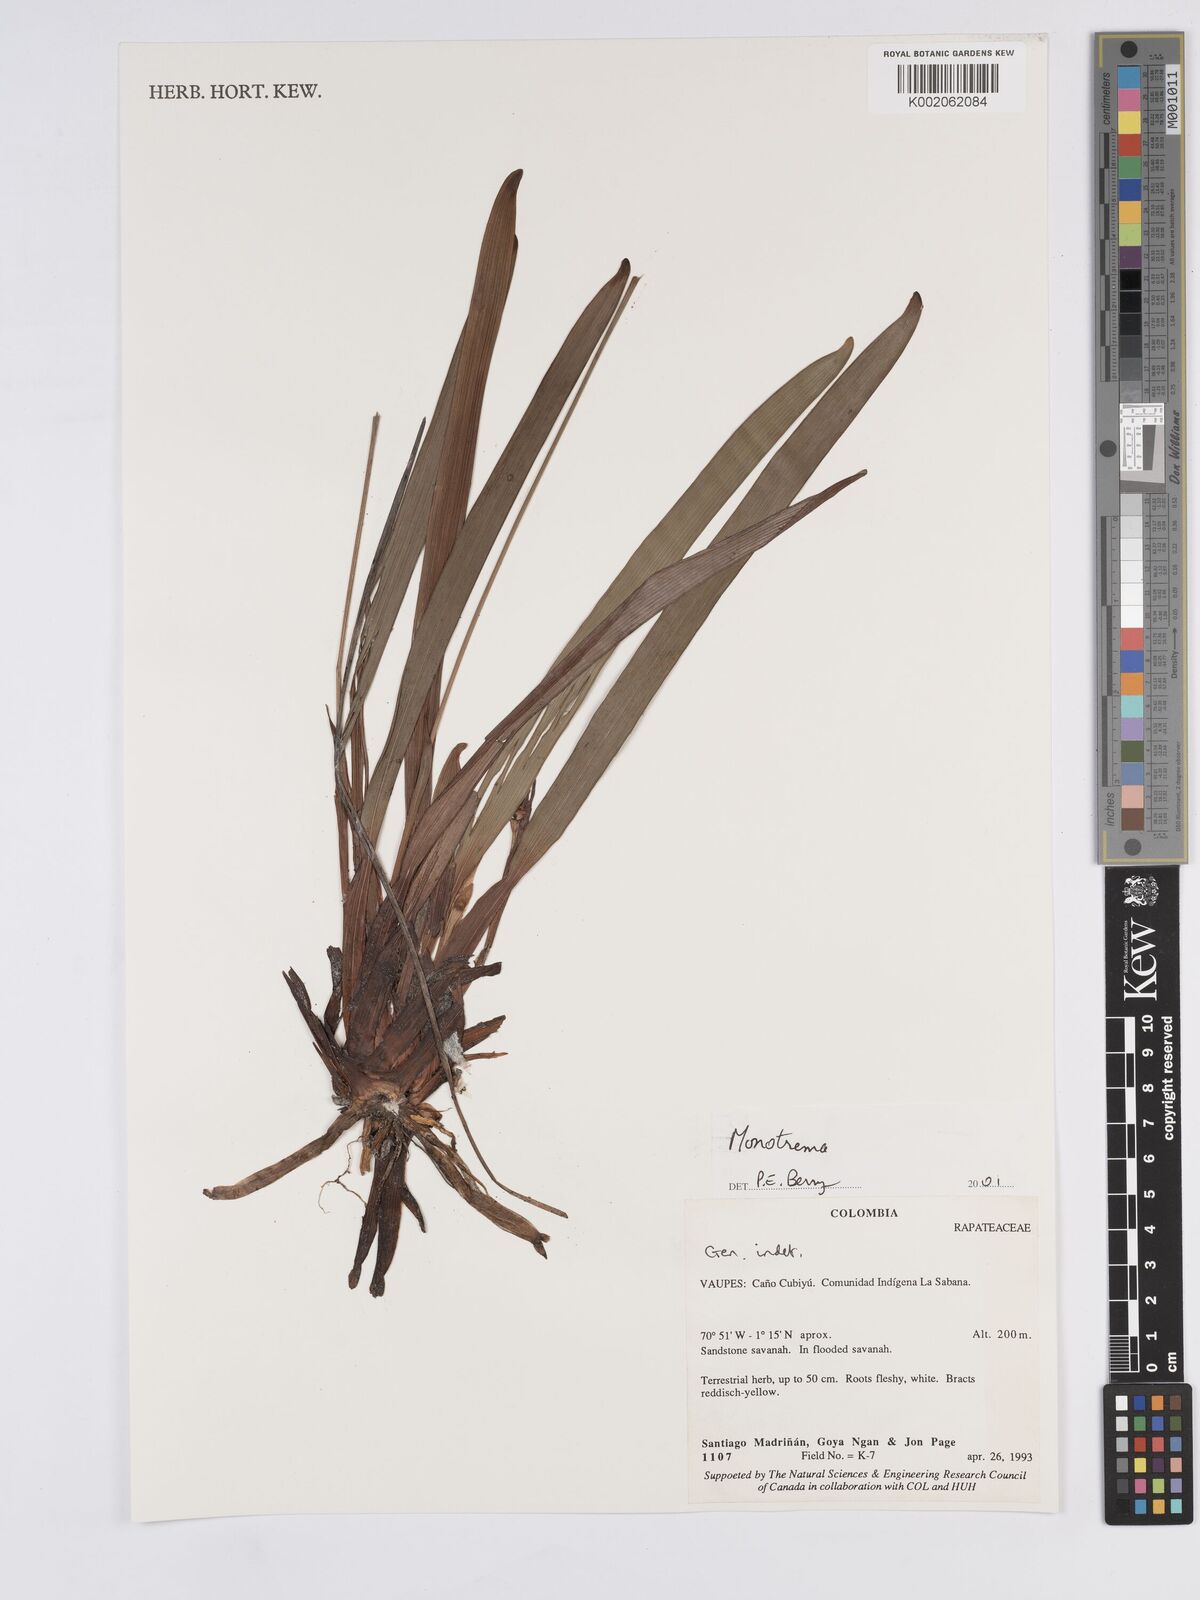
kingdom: Plantae
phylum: Tracheophyta
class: Liliopsida
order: Poales
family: Rapateaceae
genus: Monotrema
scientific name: Monotrema
